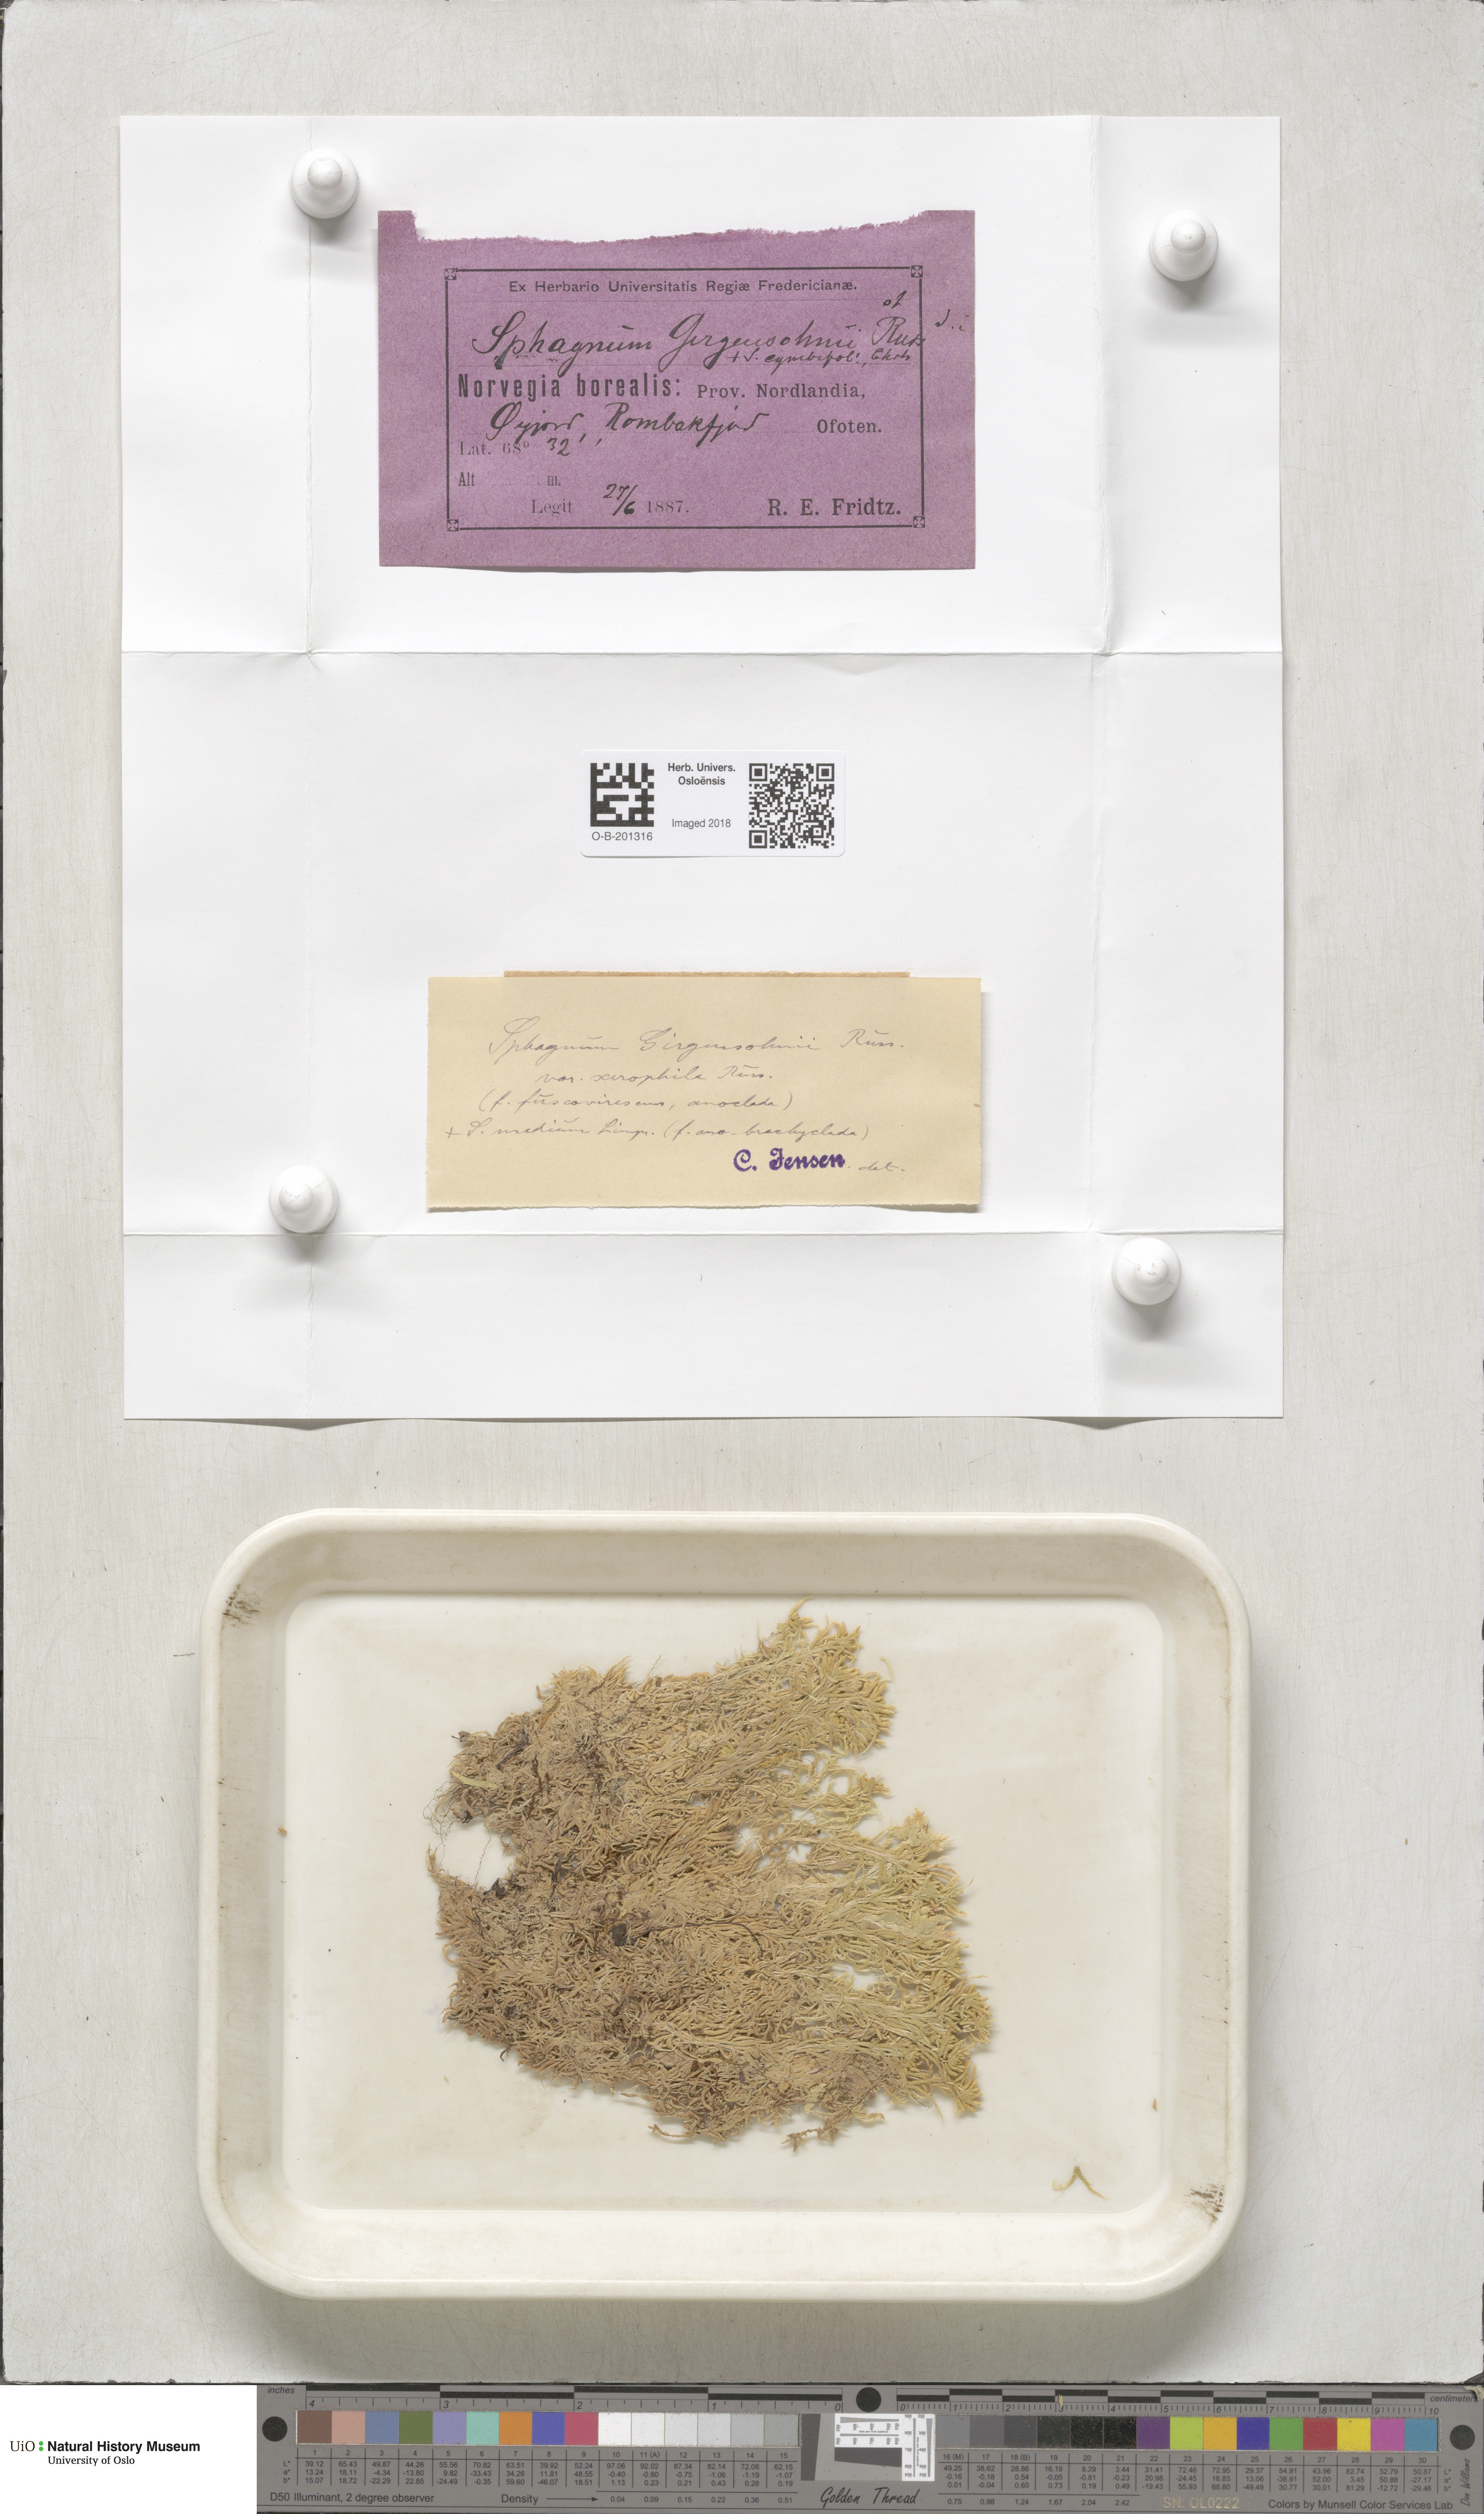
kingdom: Plantae
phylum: Bryophyta
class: Sphagnopsida
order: Sphagnales
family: Sphagnaceae
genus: Sphagnum
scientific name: Sphagnum girgensohnii
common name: Girgensohn's peat moss
